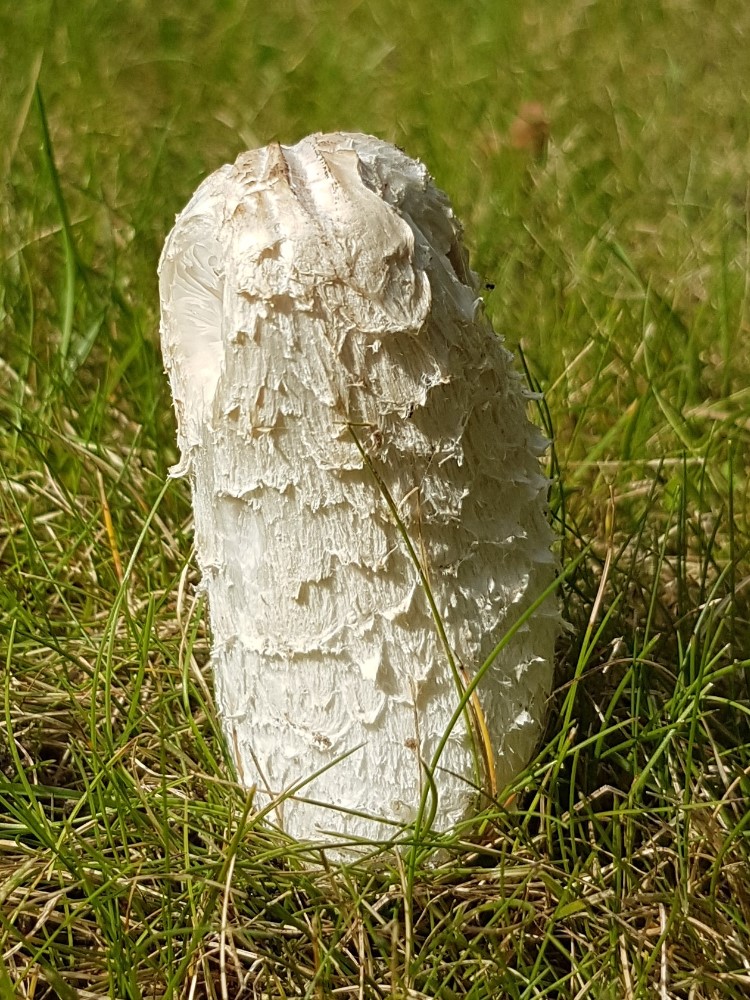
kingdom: Fungi
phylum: Basidiomycota
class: Agaricomycetes
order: Agaricales
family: Agaricaceae
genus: Coprinus
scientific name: Coprinus comatus
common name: stor parykhat
